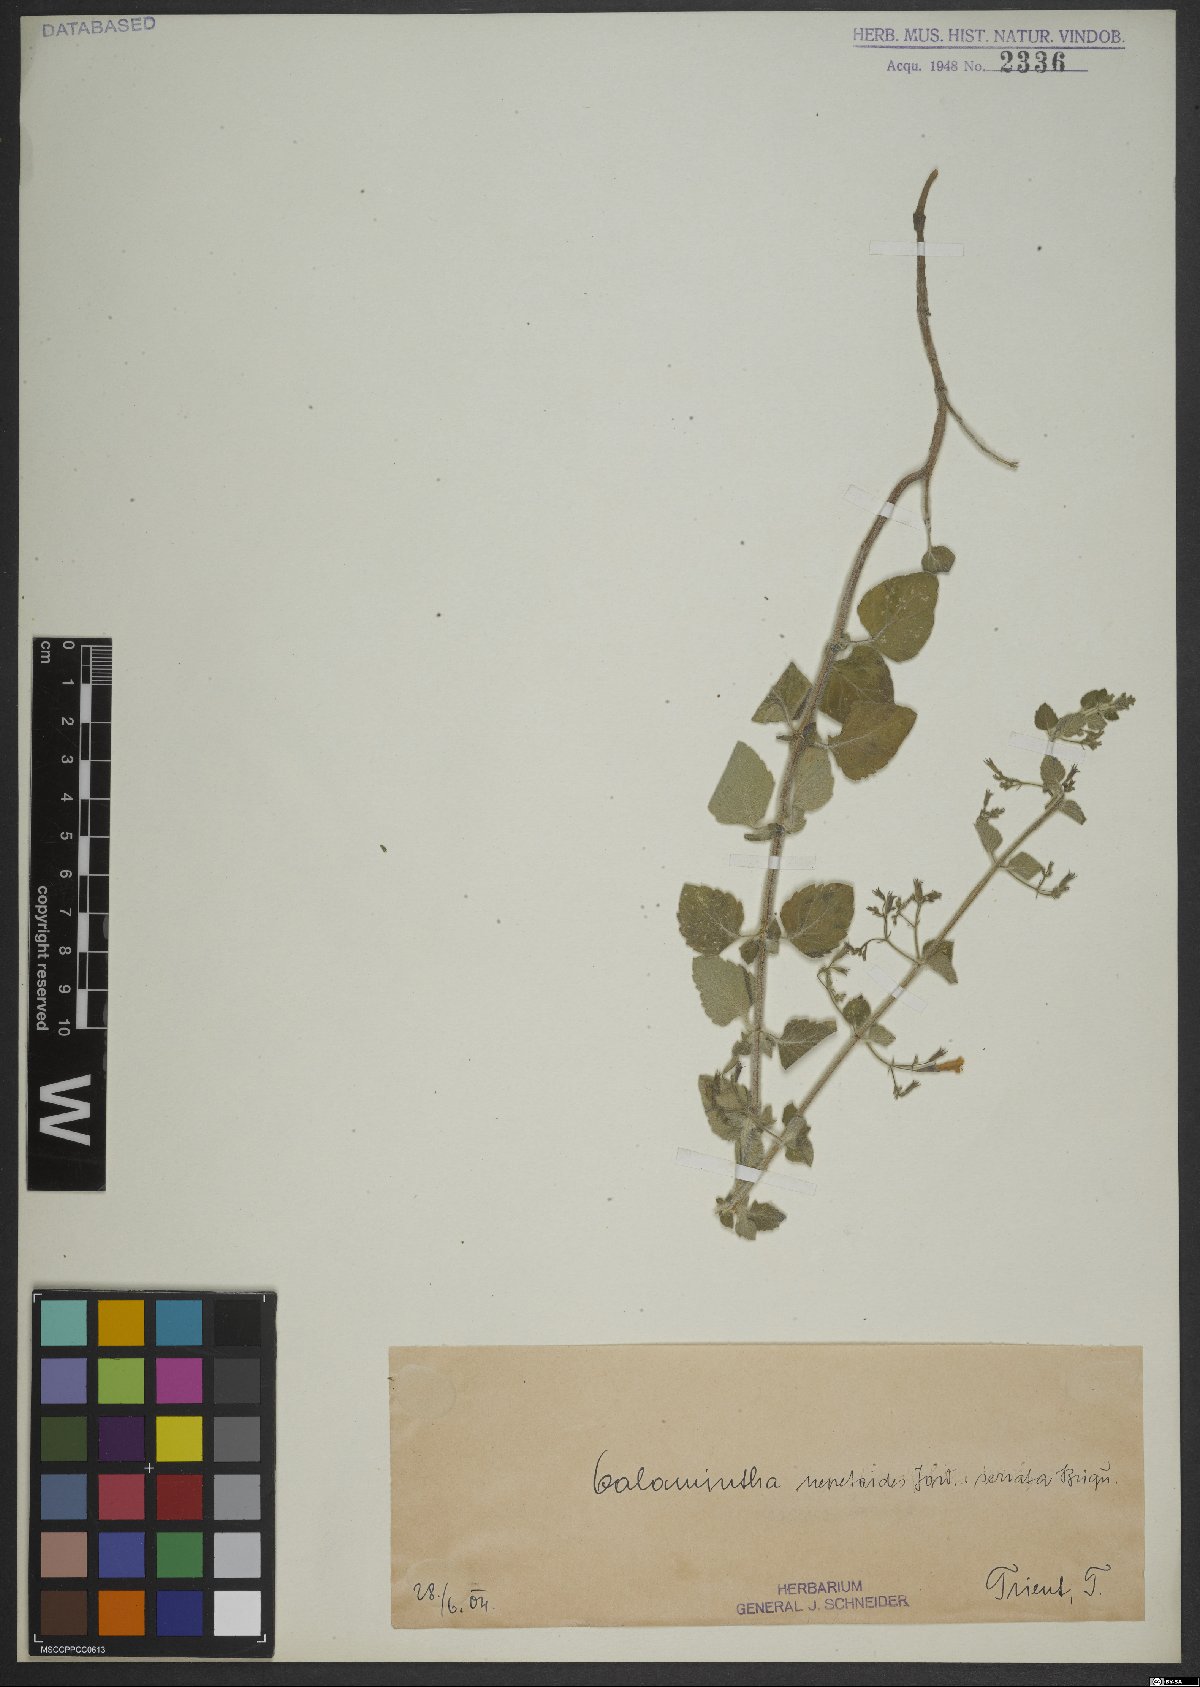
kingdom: Plantae
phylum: Tracheophyta
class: Magnoliopsida
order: Lamiales
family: Lamiaceae
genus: Clinopodium
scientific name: Clinopodium nepeta
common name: Lesser calamint
